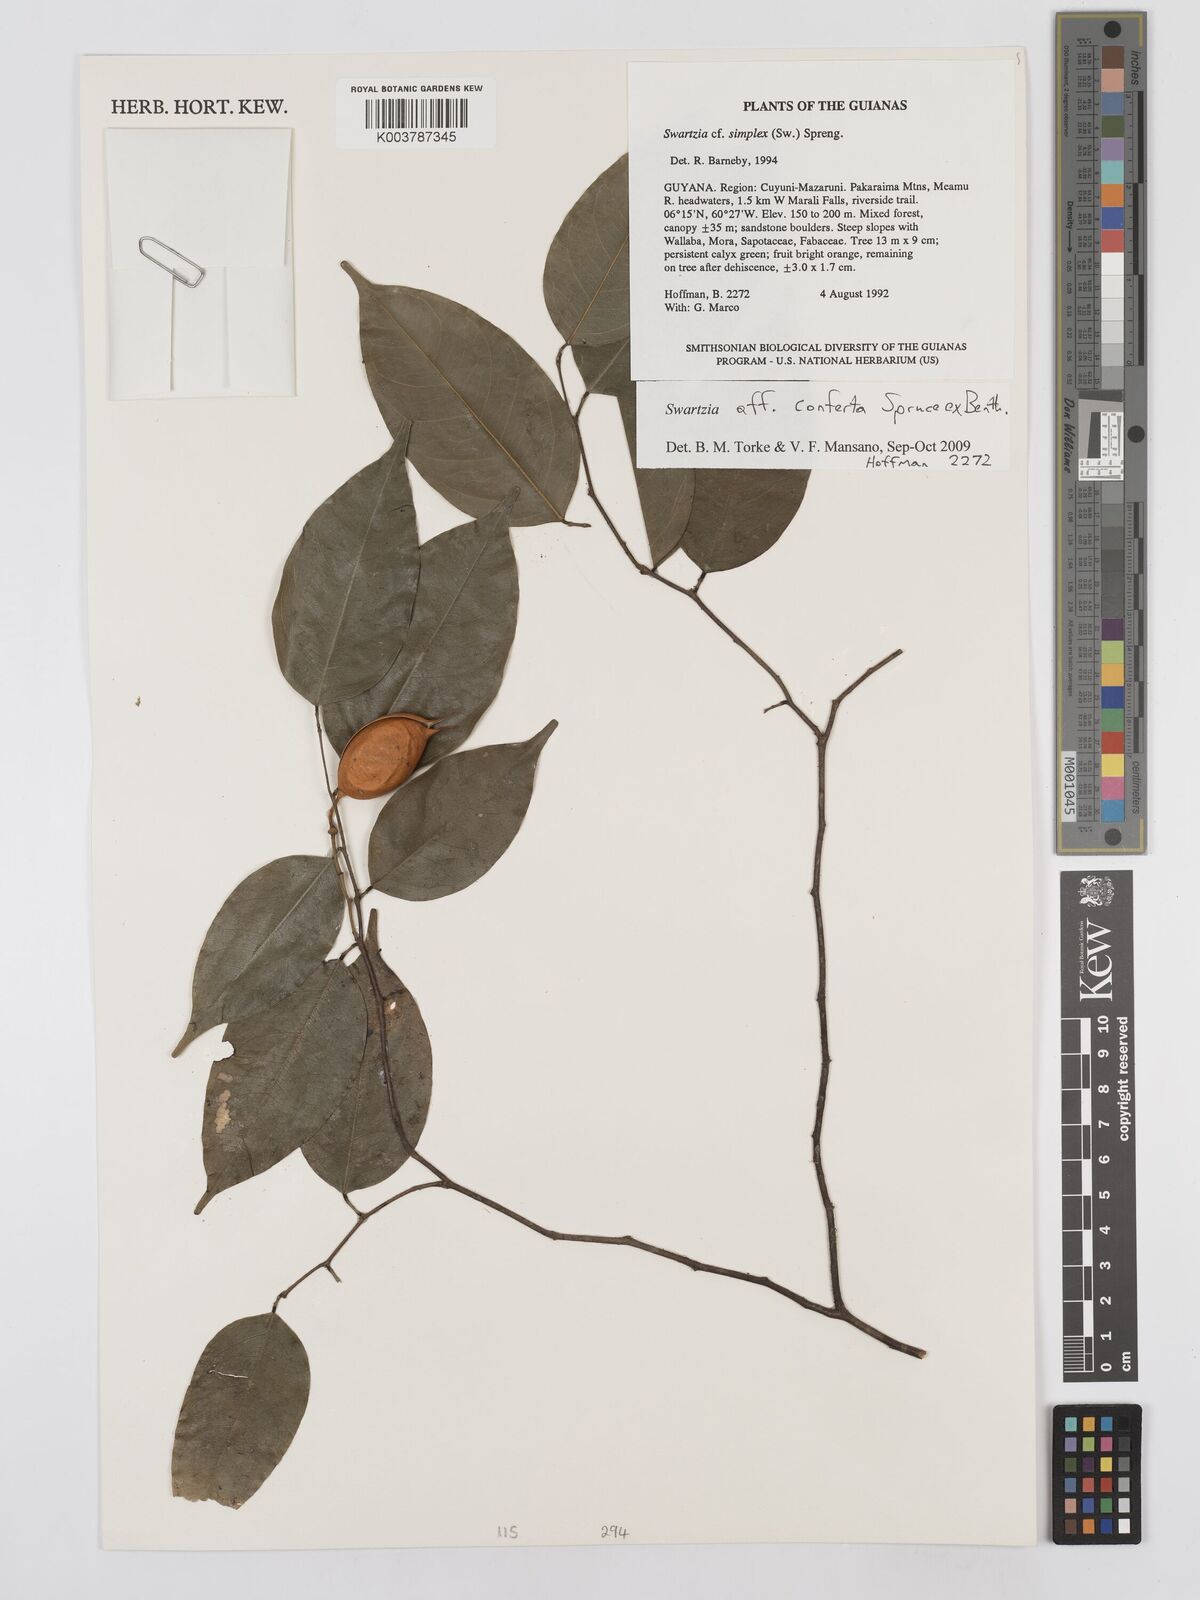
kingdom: Plantae
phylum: Tracheophyta
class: Magnoliopsida
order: Fabales
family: Fabaceae
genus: Swartzia
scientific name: Swartzia conferta
